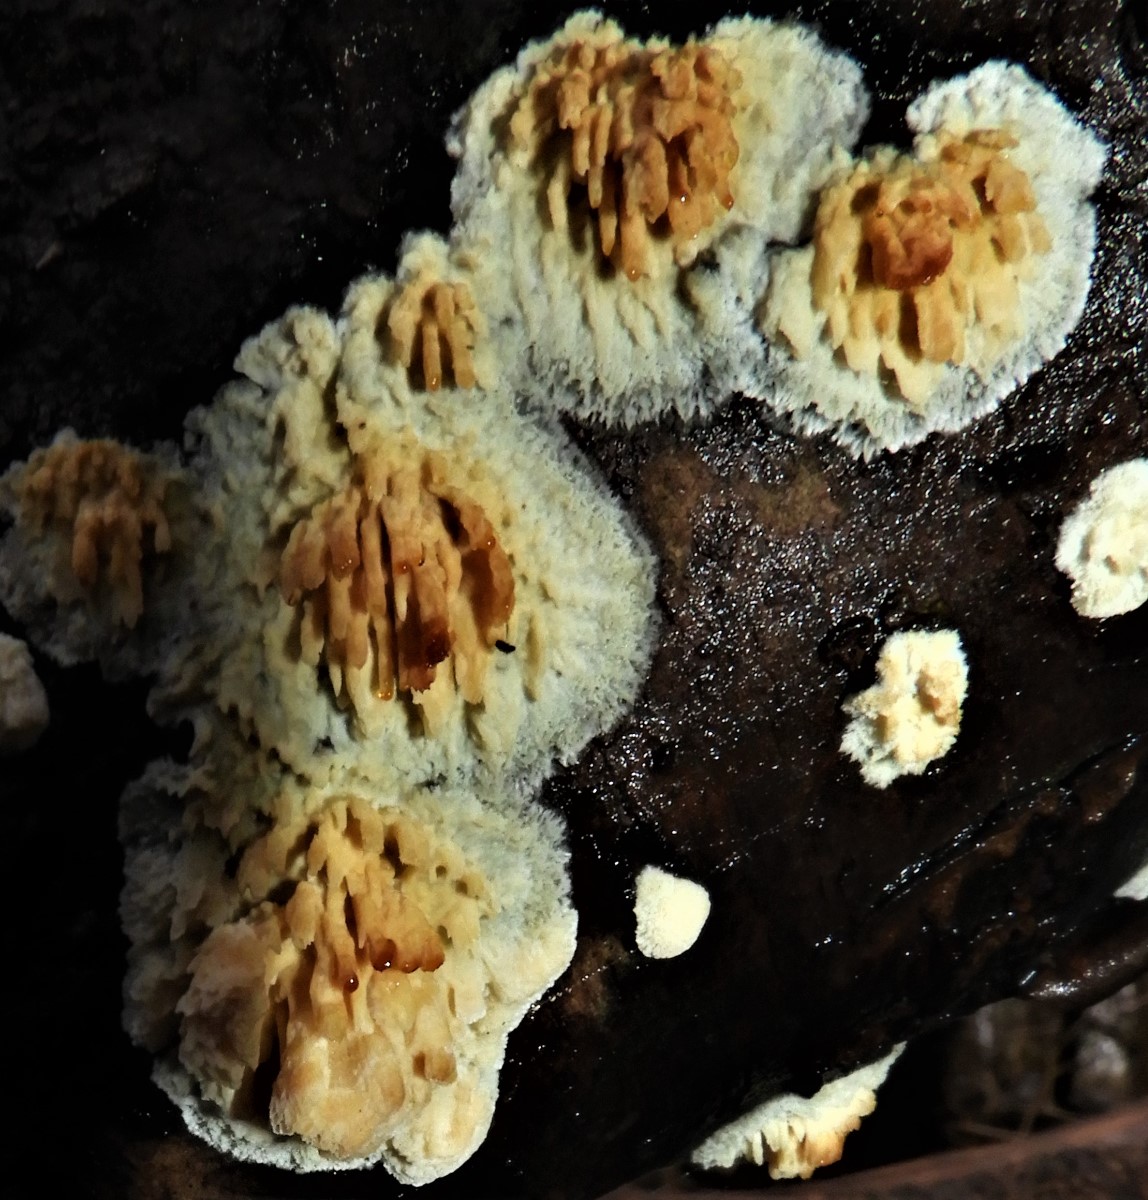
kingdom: Fungi
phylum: Basidiomycota
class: Agaricomycetes
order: Hymenochaetales
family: Schizoporaceae
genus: Xylodon
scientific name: Xylodon radula
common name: grovtandet kalkskind
